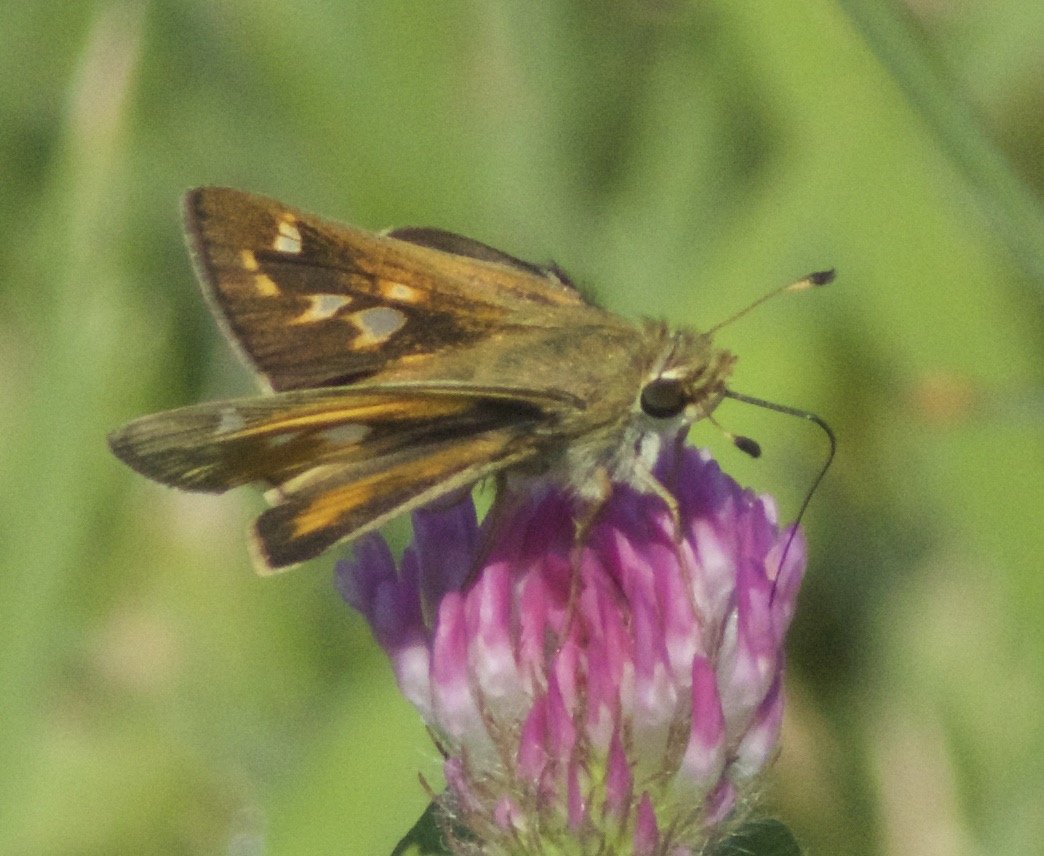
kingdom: Animalia
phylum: Arthropoda
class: Insecta
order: Lepidoptera
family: Hesperiidae
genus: Poanes
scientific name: Poanes viator
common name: Broad-winged Skipper
